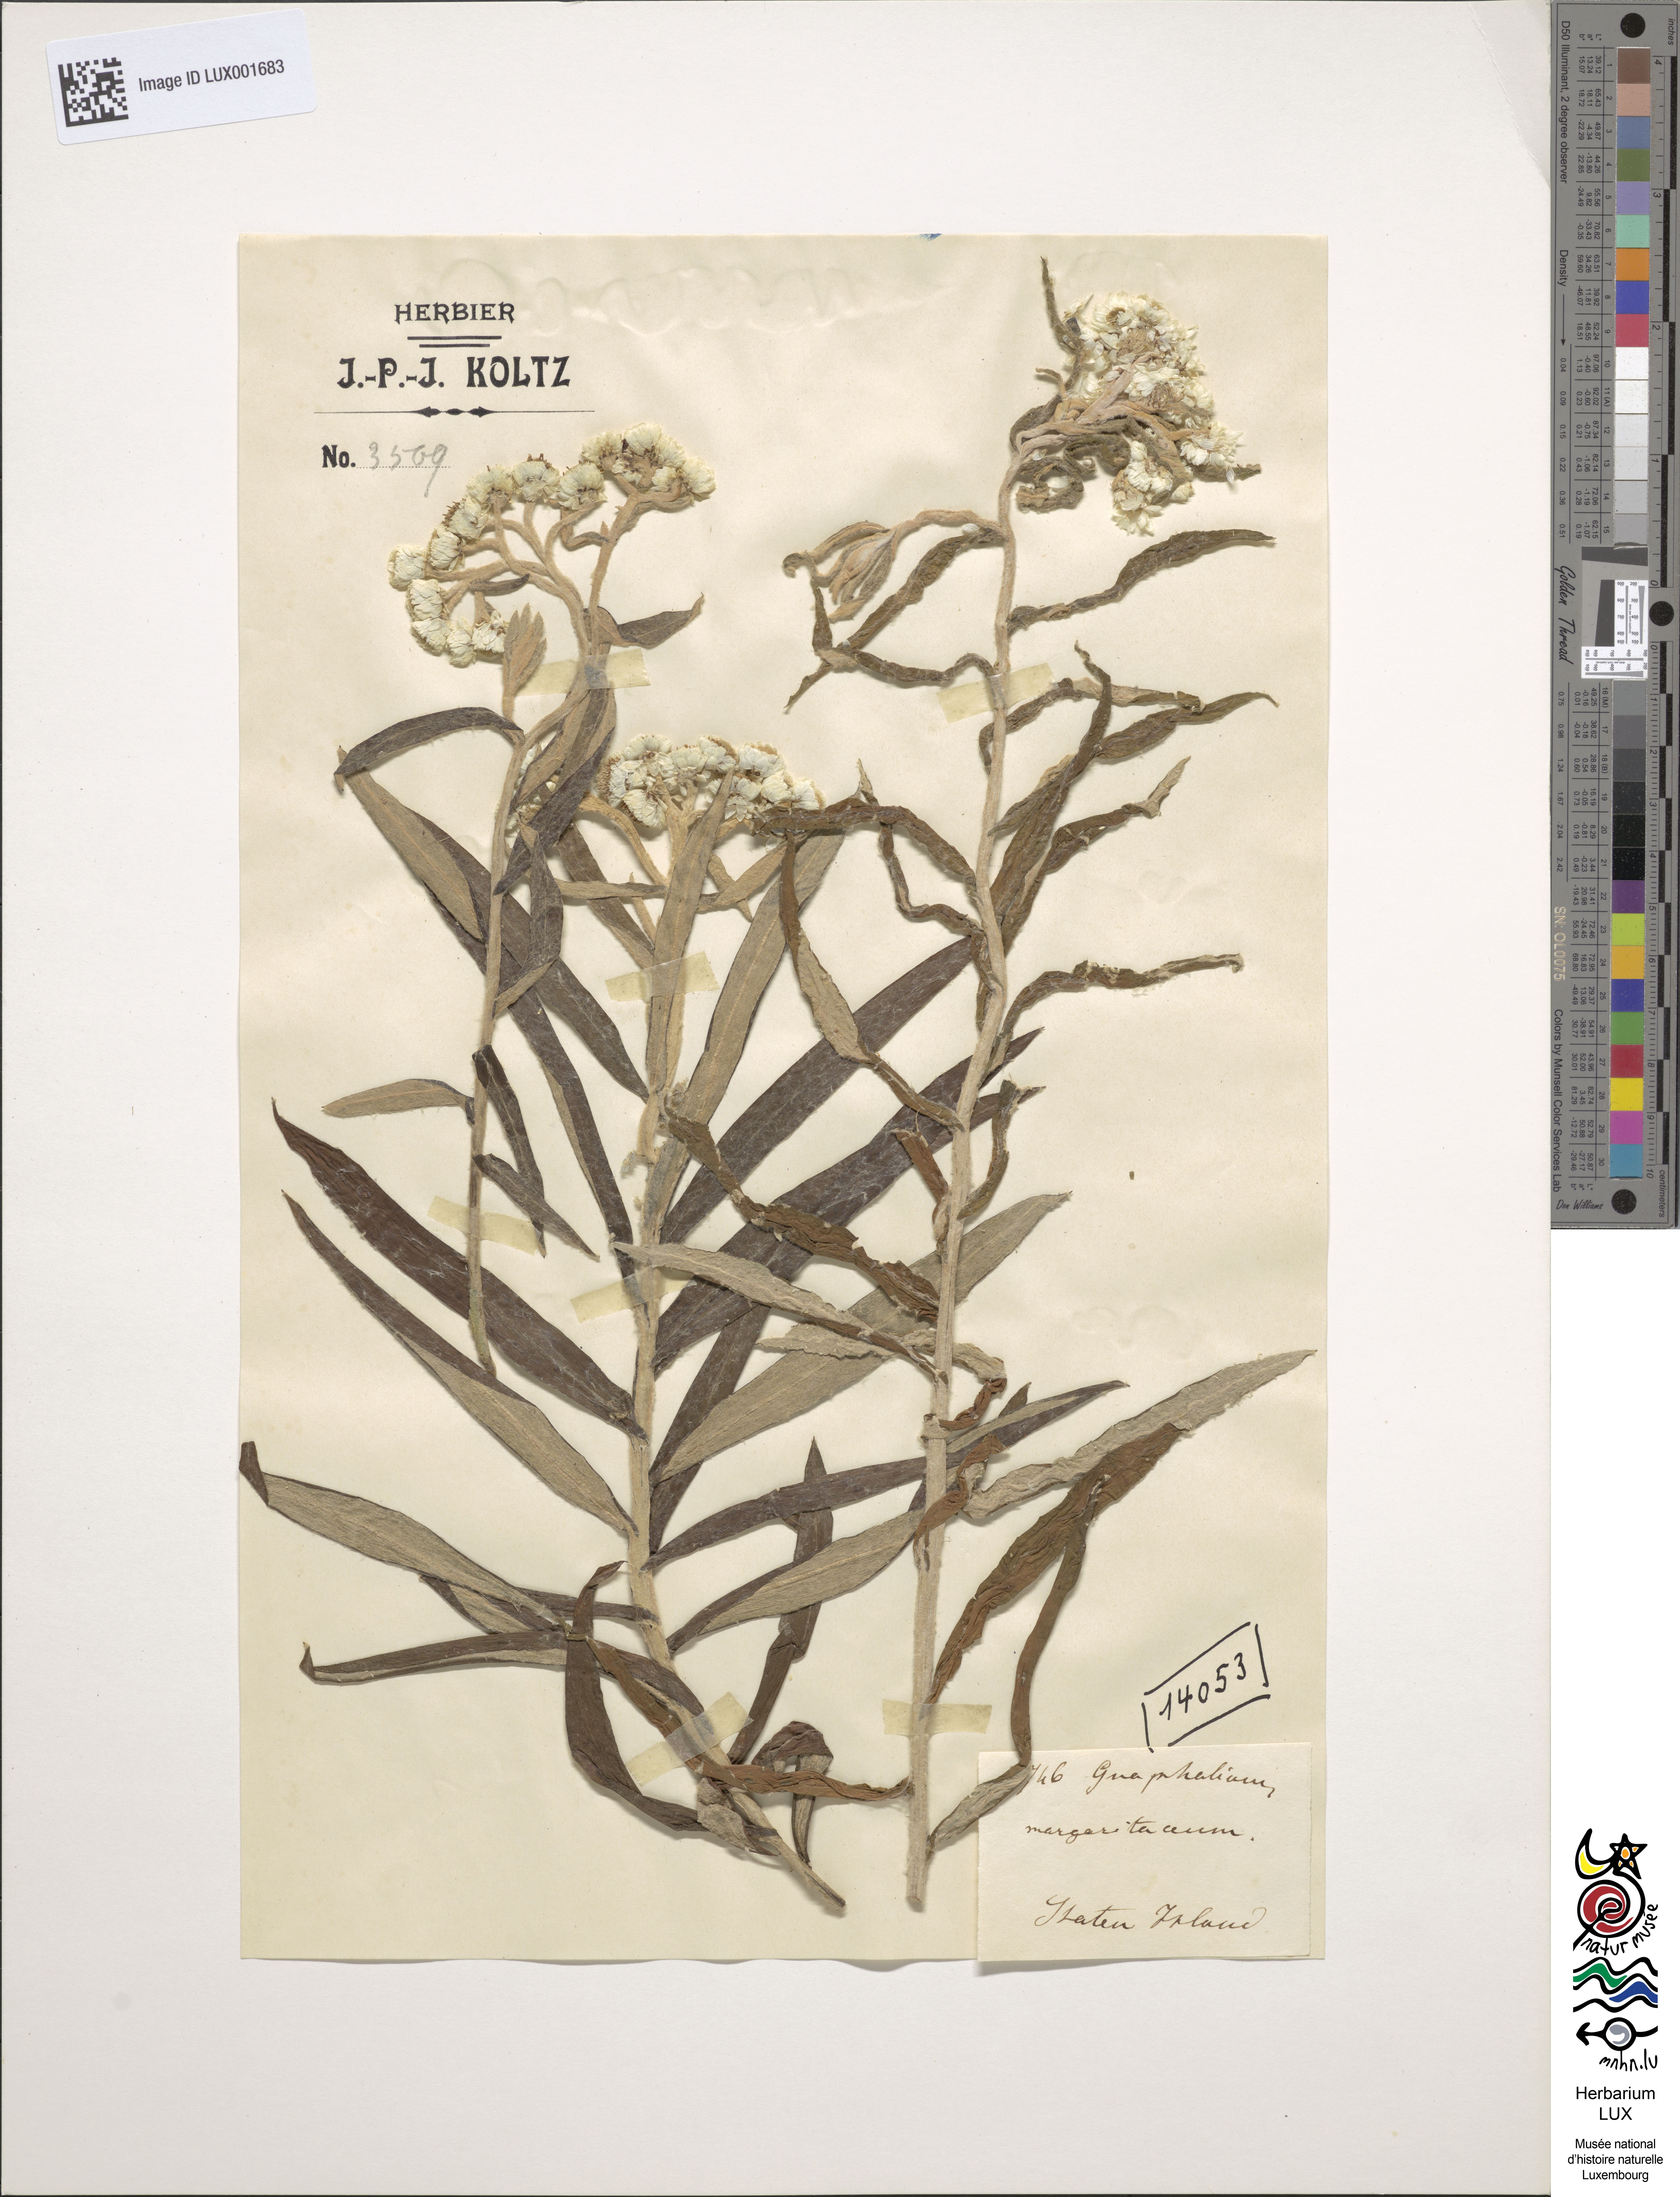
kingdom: Plantae
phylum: Tracheophyta
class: Magnoliopsida
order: Asterales
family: Asteraceae
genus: Anaphalis
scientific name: Anaphalis margaritacea
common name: Pearly everlasting
